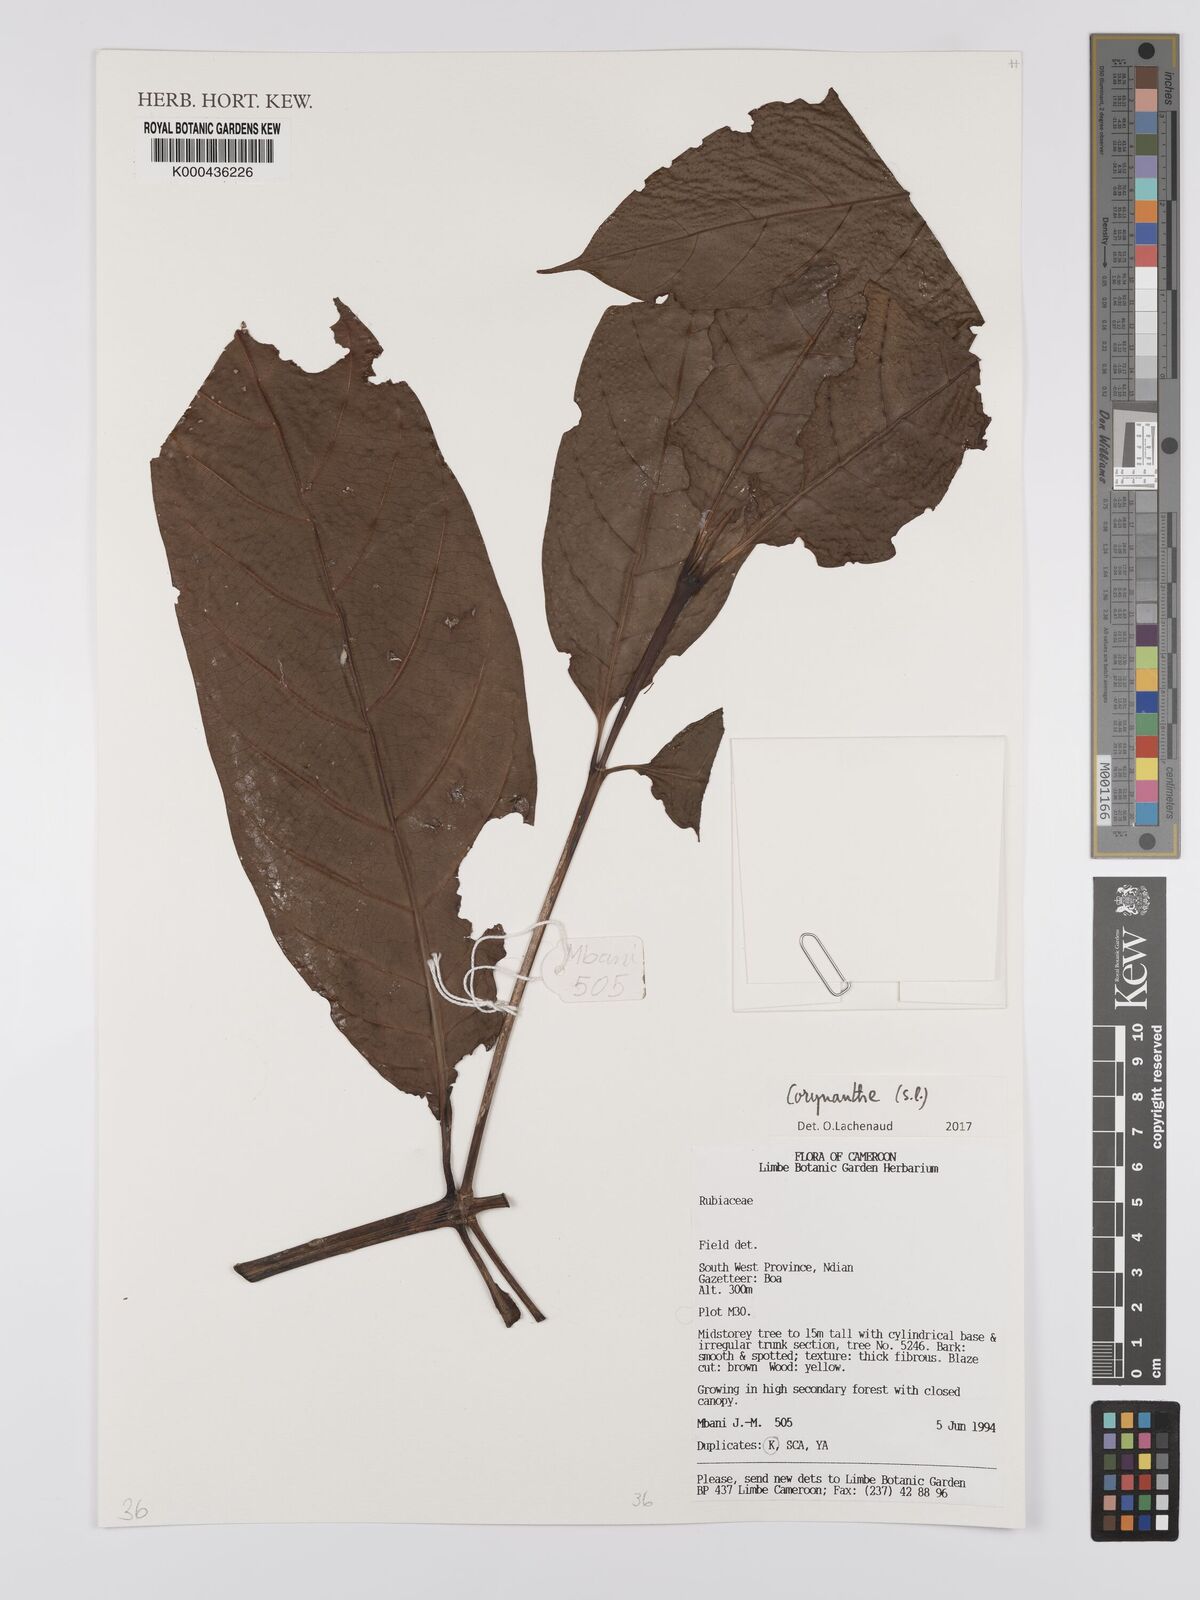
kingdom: Plantae
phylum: Tracheophyta
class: Magnoliopsida
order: Gentianales
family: Rubiaceae
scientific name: Rubiaceae
